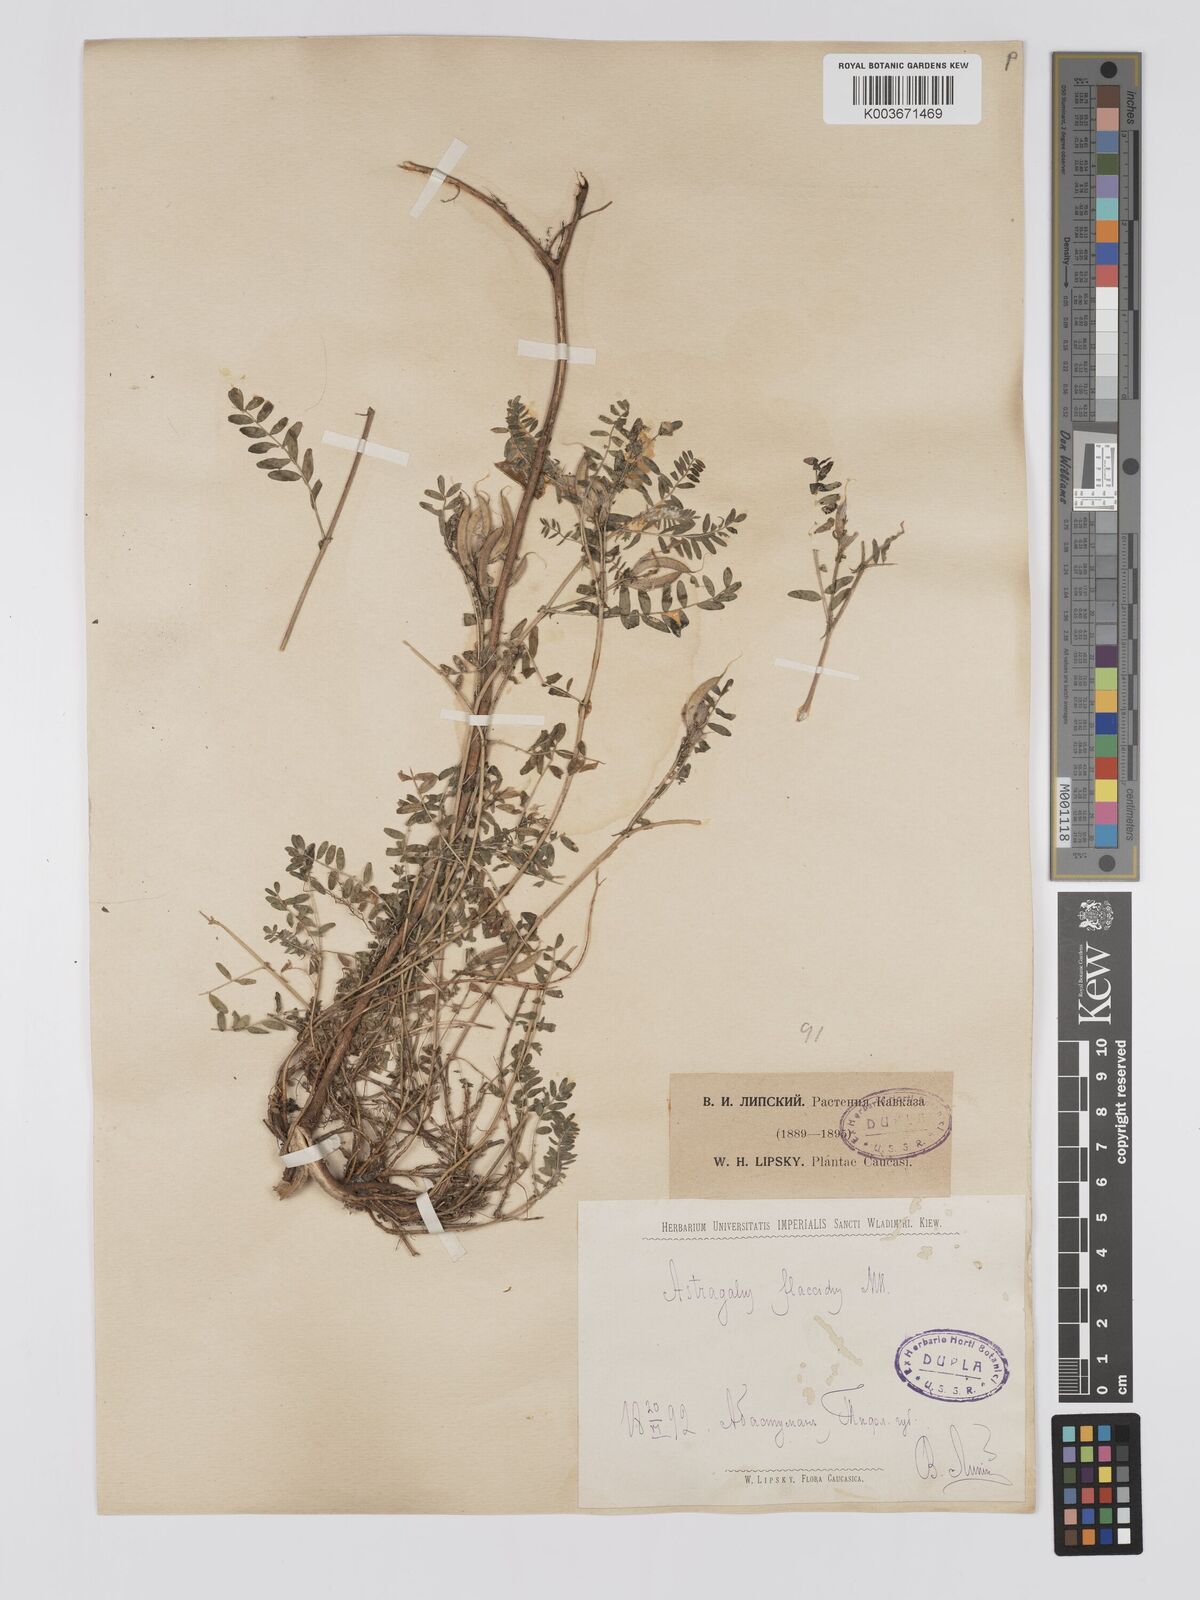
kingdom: Plantae
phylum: Tracheophyta
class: Magnoliopsida
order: Fabales
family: Fabaceae
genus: Astragalus
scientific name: Astragalus humifusus
